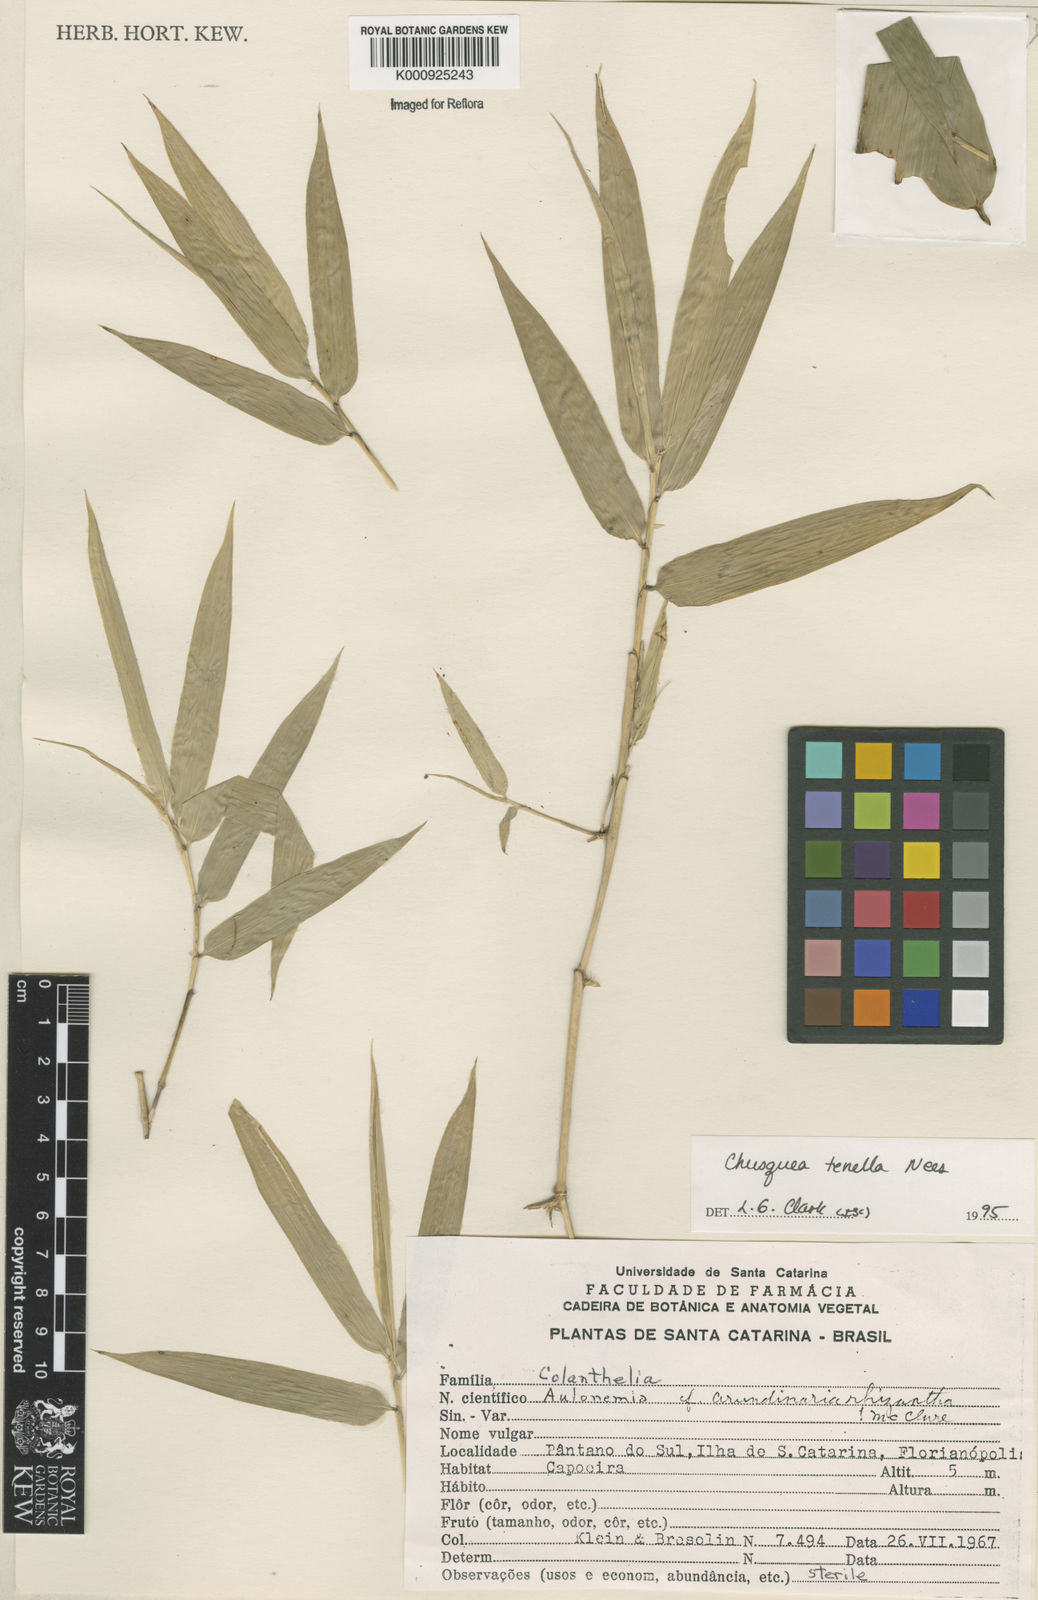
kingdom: Plantae
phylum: Tracheophyta
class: Liliopsida
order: Poales
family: Poaceae
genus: Chusquea
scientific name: Chusquea tenella
